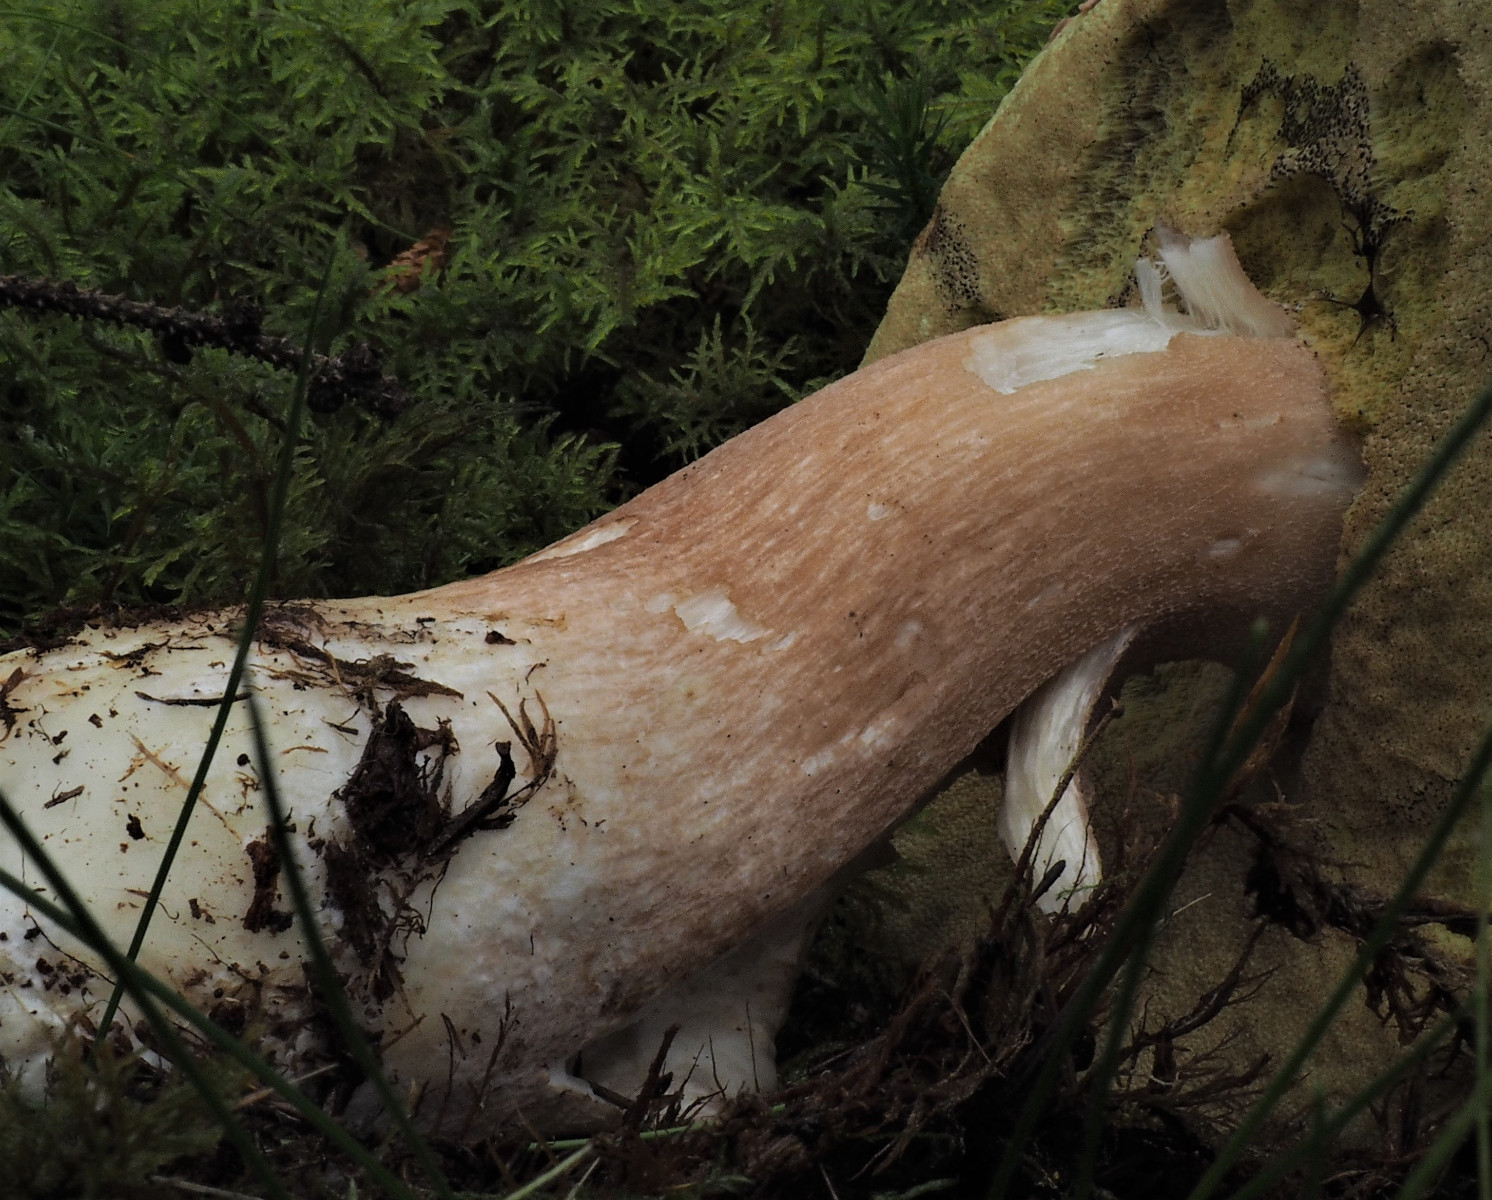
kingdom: Fungi
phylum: Basidiomycota
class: Agaricomycetes
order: Boletales
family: Boletaceae
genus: Boletus
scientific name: Boletus pinophilus
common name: rødbrun rørhat
